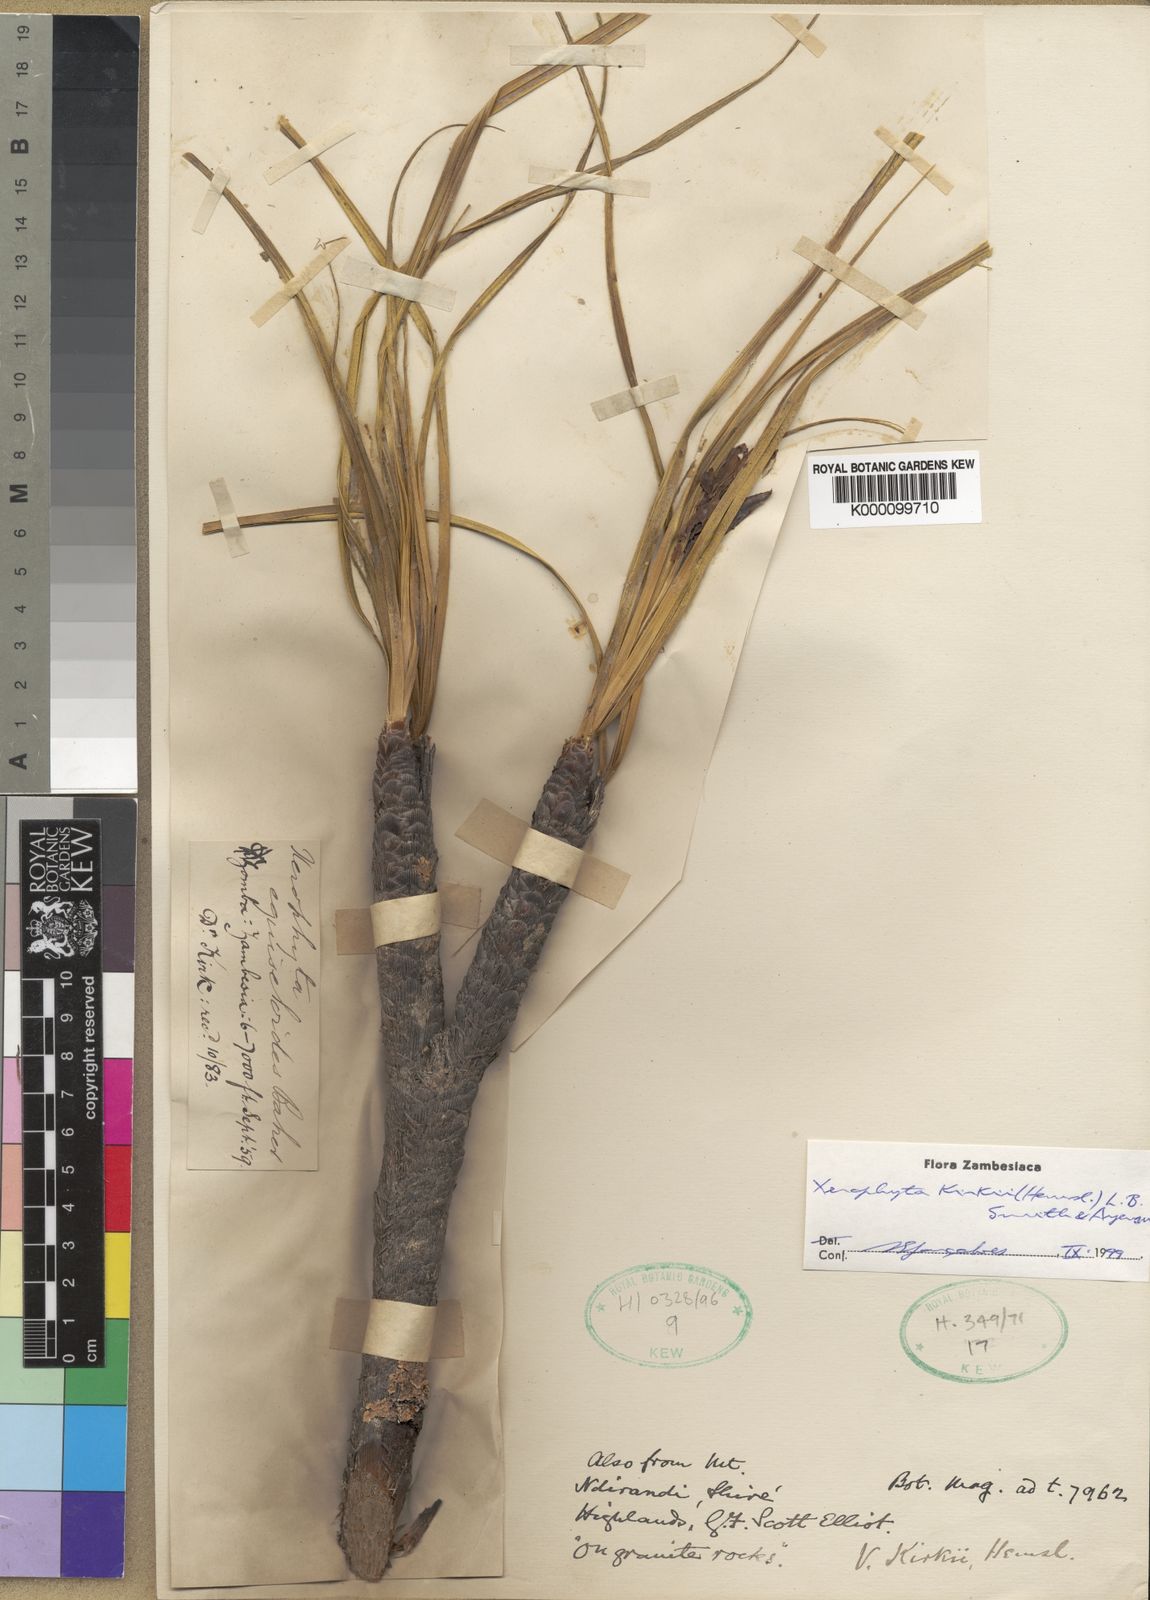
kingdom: Plantae
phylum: Tracheophyta
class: Liliopsida
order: Pandanales
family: Velloziaceae
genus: Xerophyta
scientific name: Xerophyta kirkii
